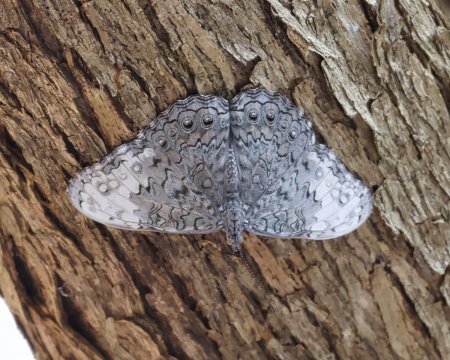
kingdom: Animalia
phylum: Arthropoda
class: Insecta
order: Lepidoptera
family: Nymphalidae
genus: Hamadryas
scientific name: Hamadryas glauconome
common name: Glaucous Cracker
